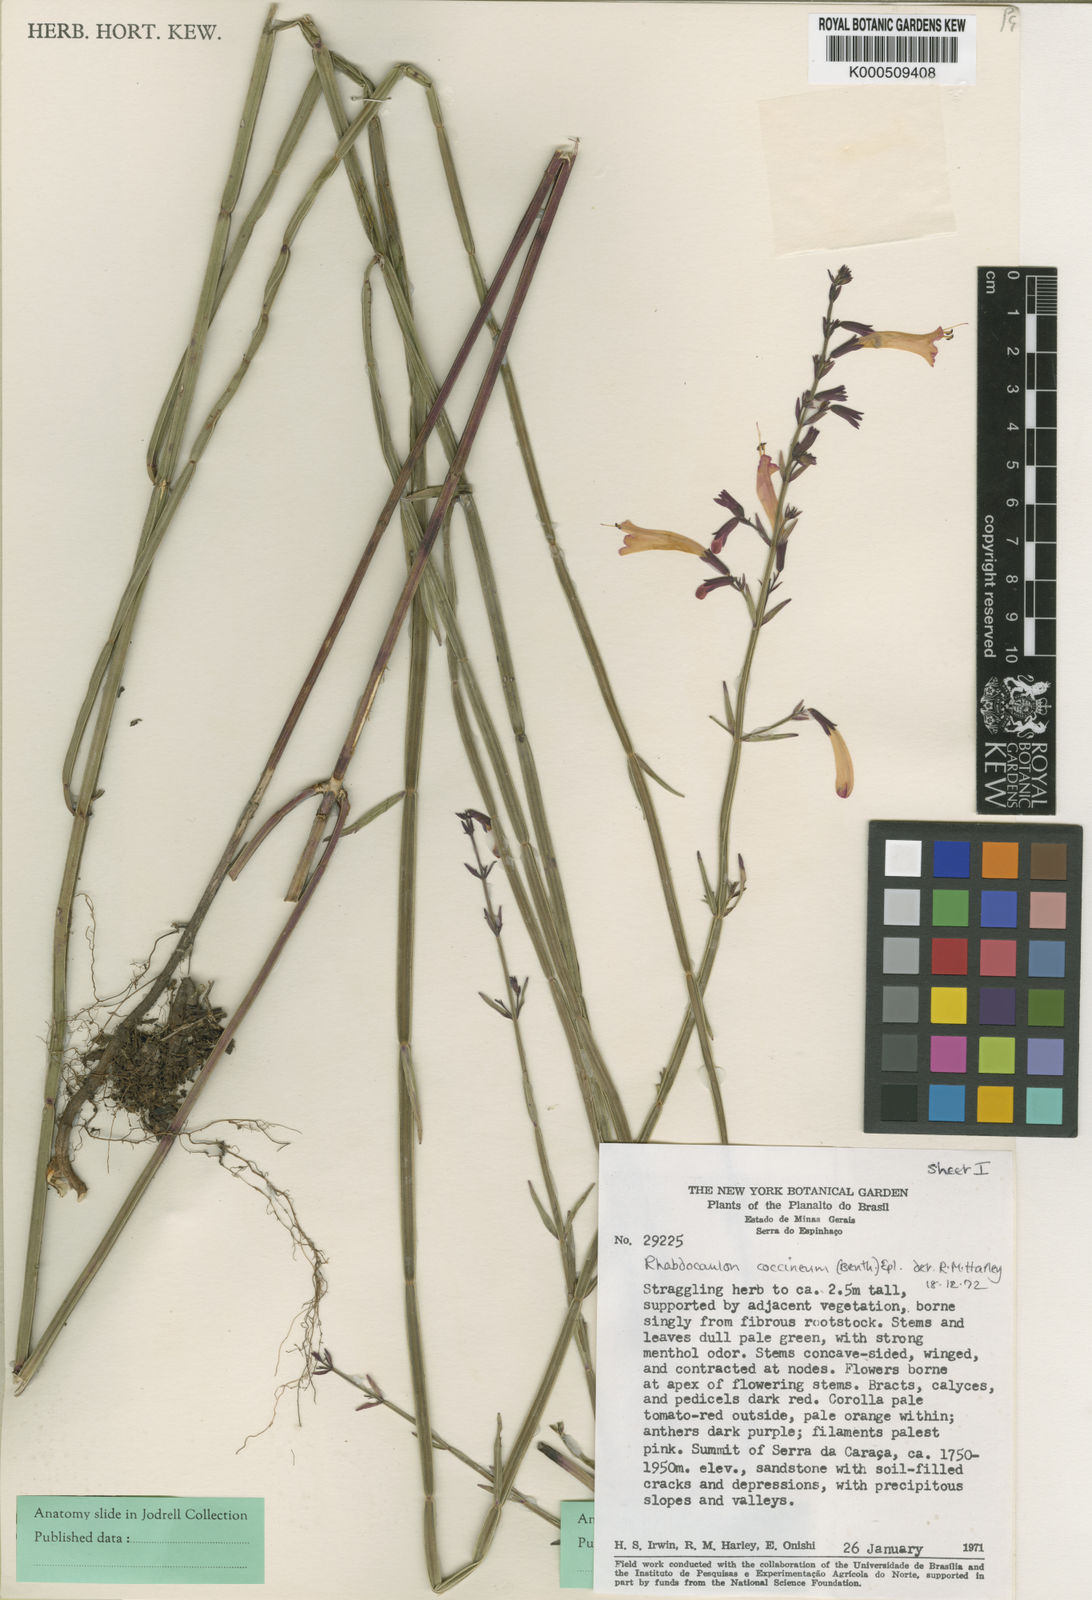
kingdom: Plantae
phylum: Tracheophyta
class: Magnoliopsida
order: Lamiales
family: Lamiaceae
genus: Rhabdocaulon
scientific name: Rhabdocaulon coccineum
